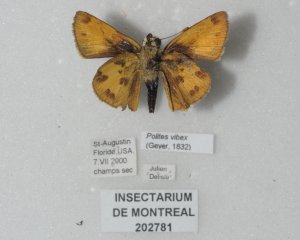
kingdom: Animalia
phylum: Arthropoda
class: Insecta
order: Lepidoptera
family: Hesperiidae
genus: Polites
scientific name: Polites vibex
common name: Whirlabout
